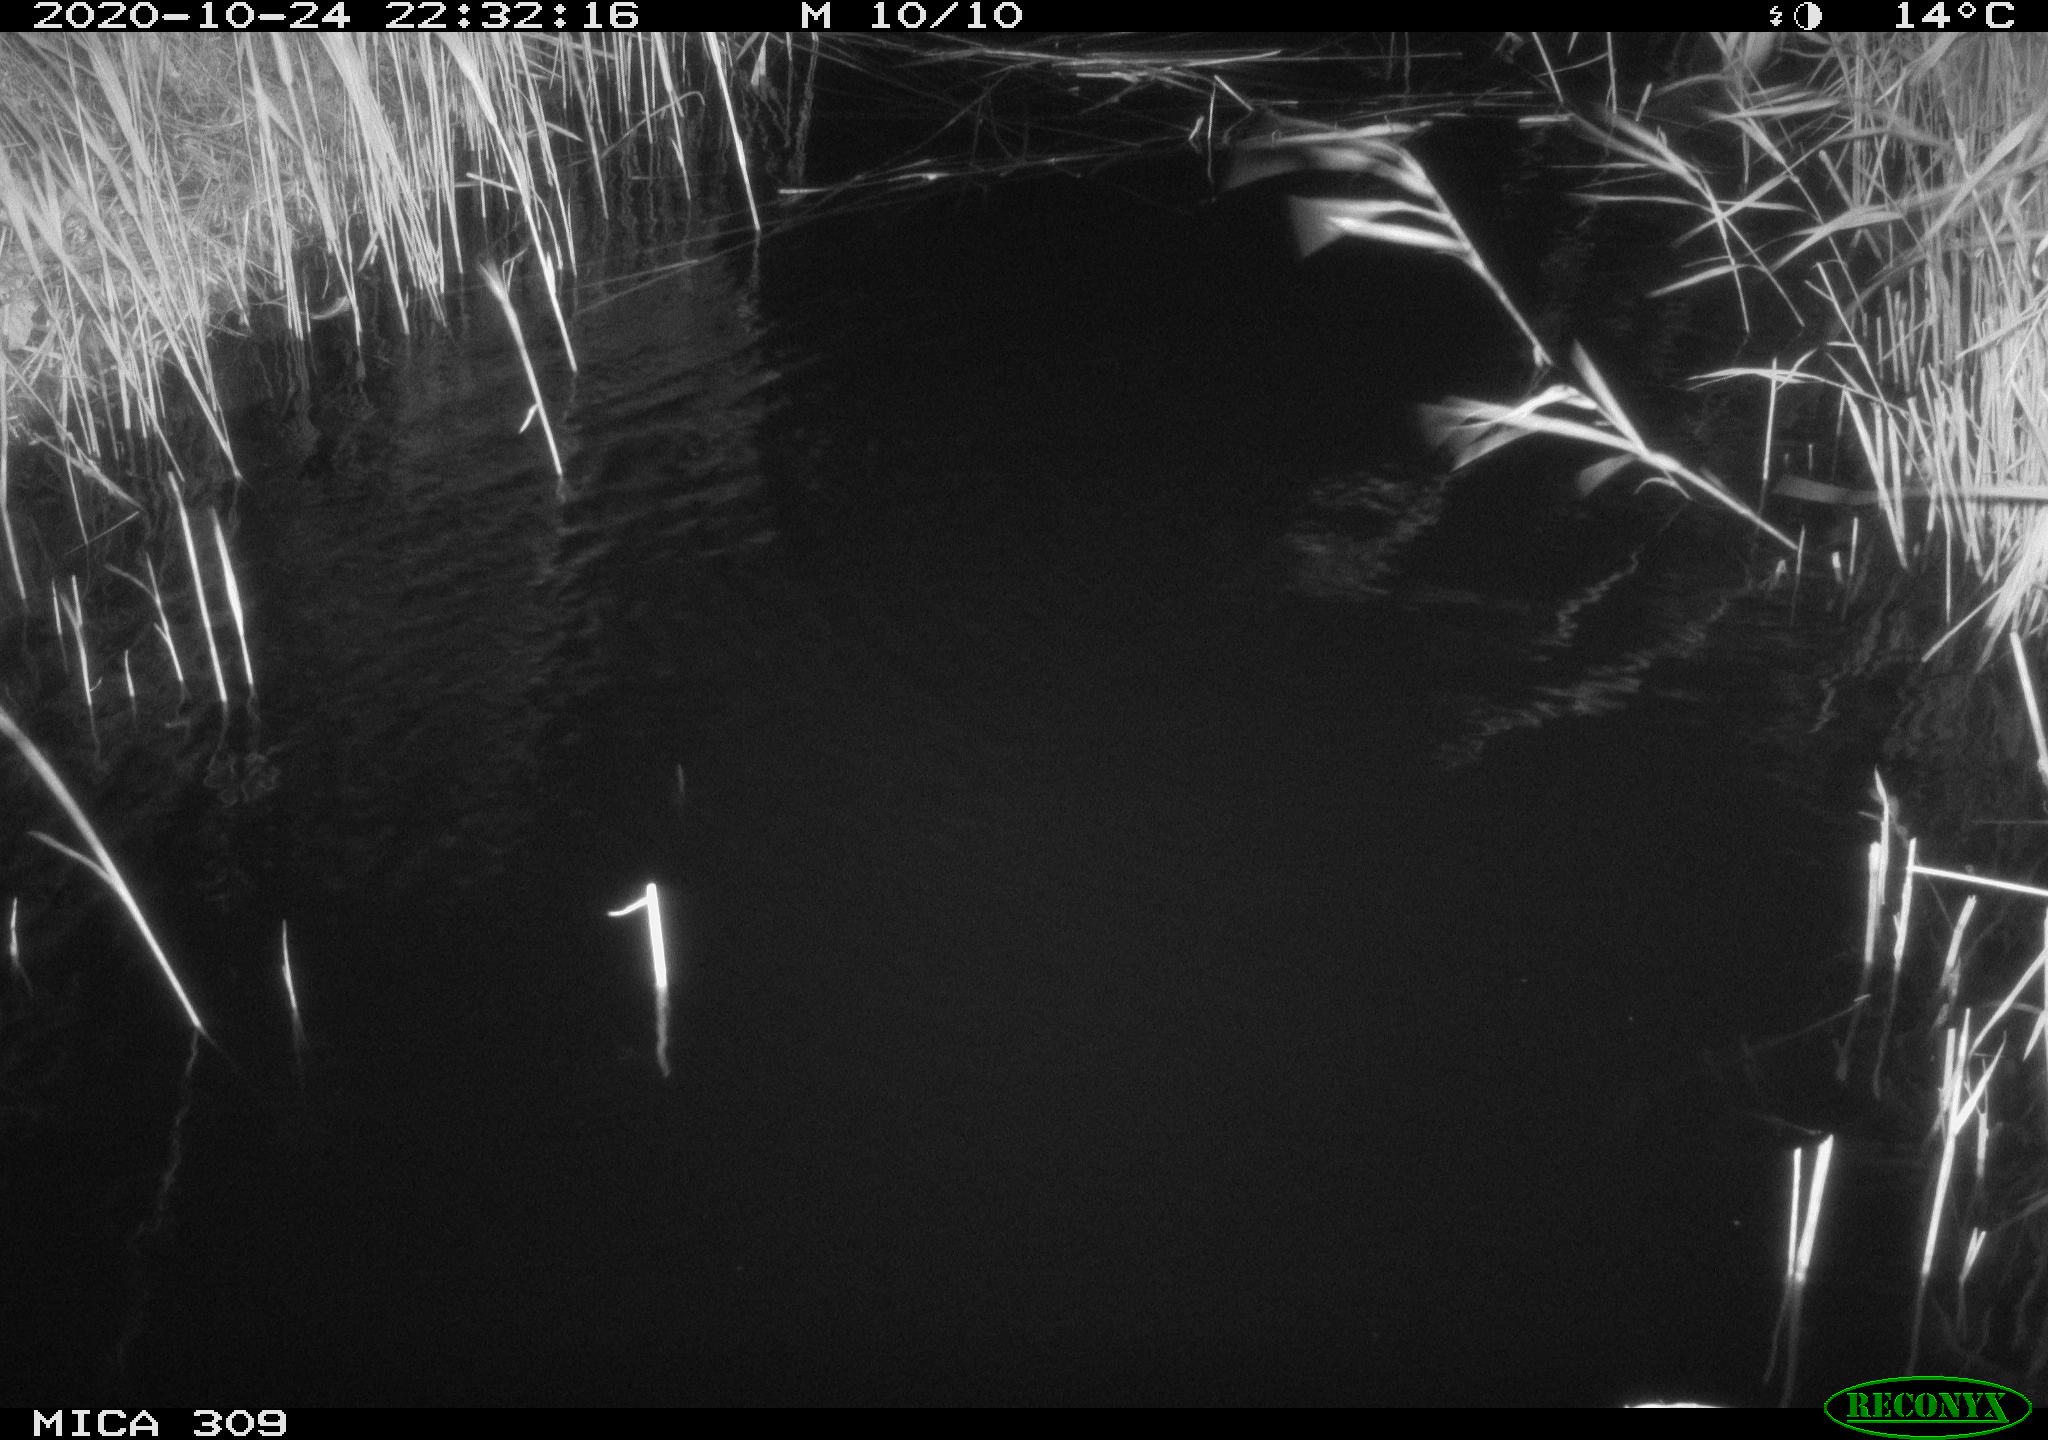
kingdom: Animalia
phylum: Chordata
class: Mammalia
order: Rodentia
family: Muridae
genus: Rattus
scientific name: Rattus norvegicus
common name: Brown rat
